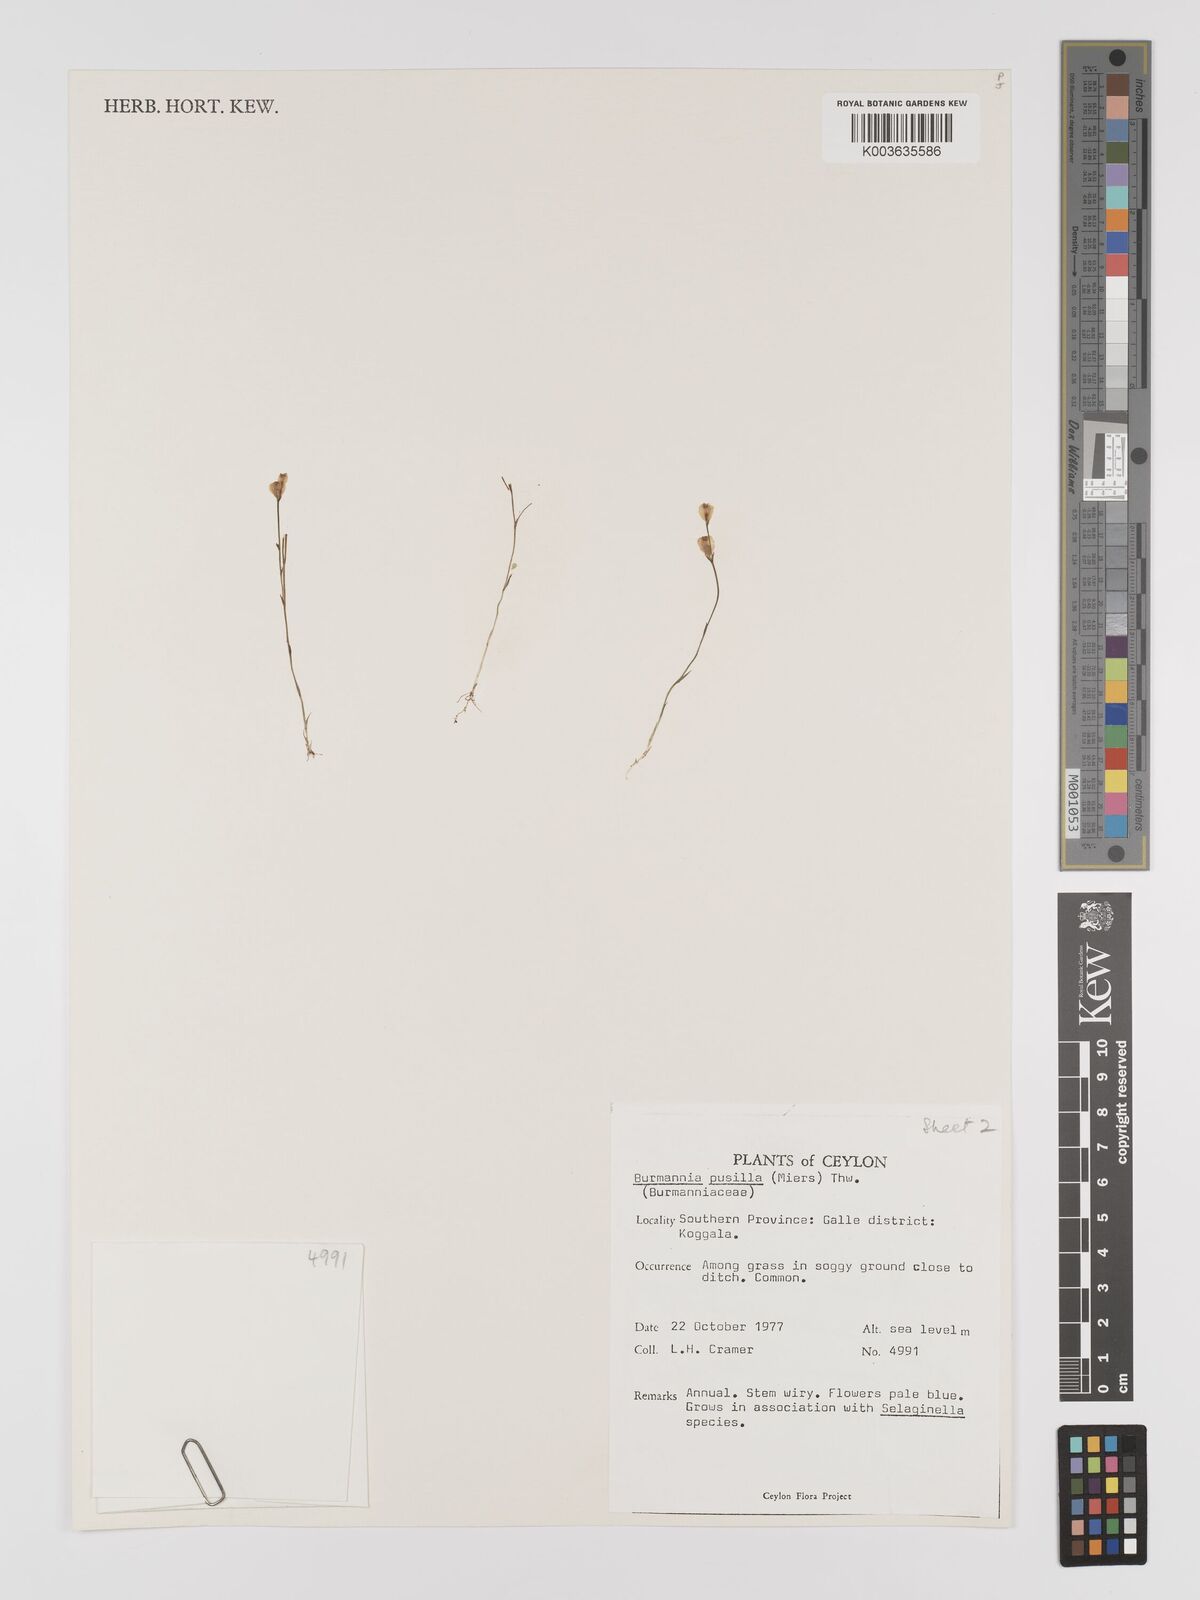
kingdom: Plantae
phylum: Tracheophyta
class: Liliopsida
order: Dioscoreales
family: Burmanniaceae
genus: Burmannia
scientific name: Burmannia pusilla
